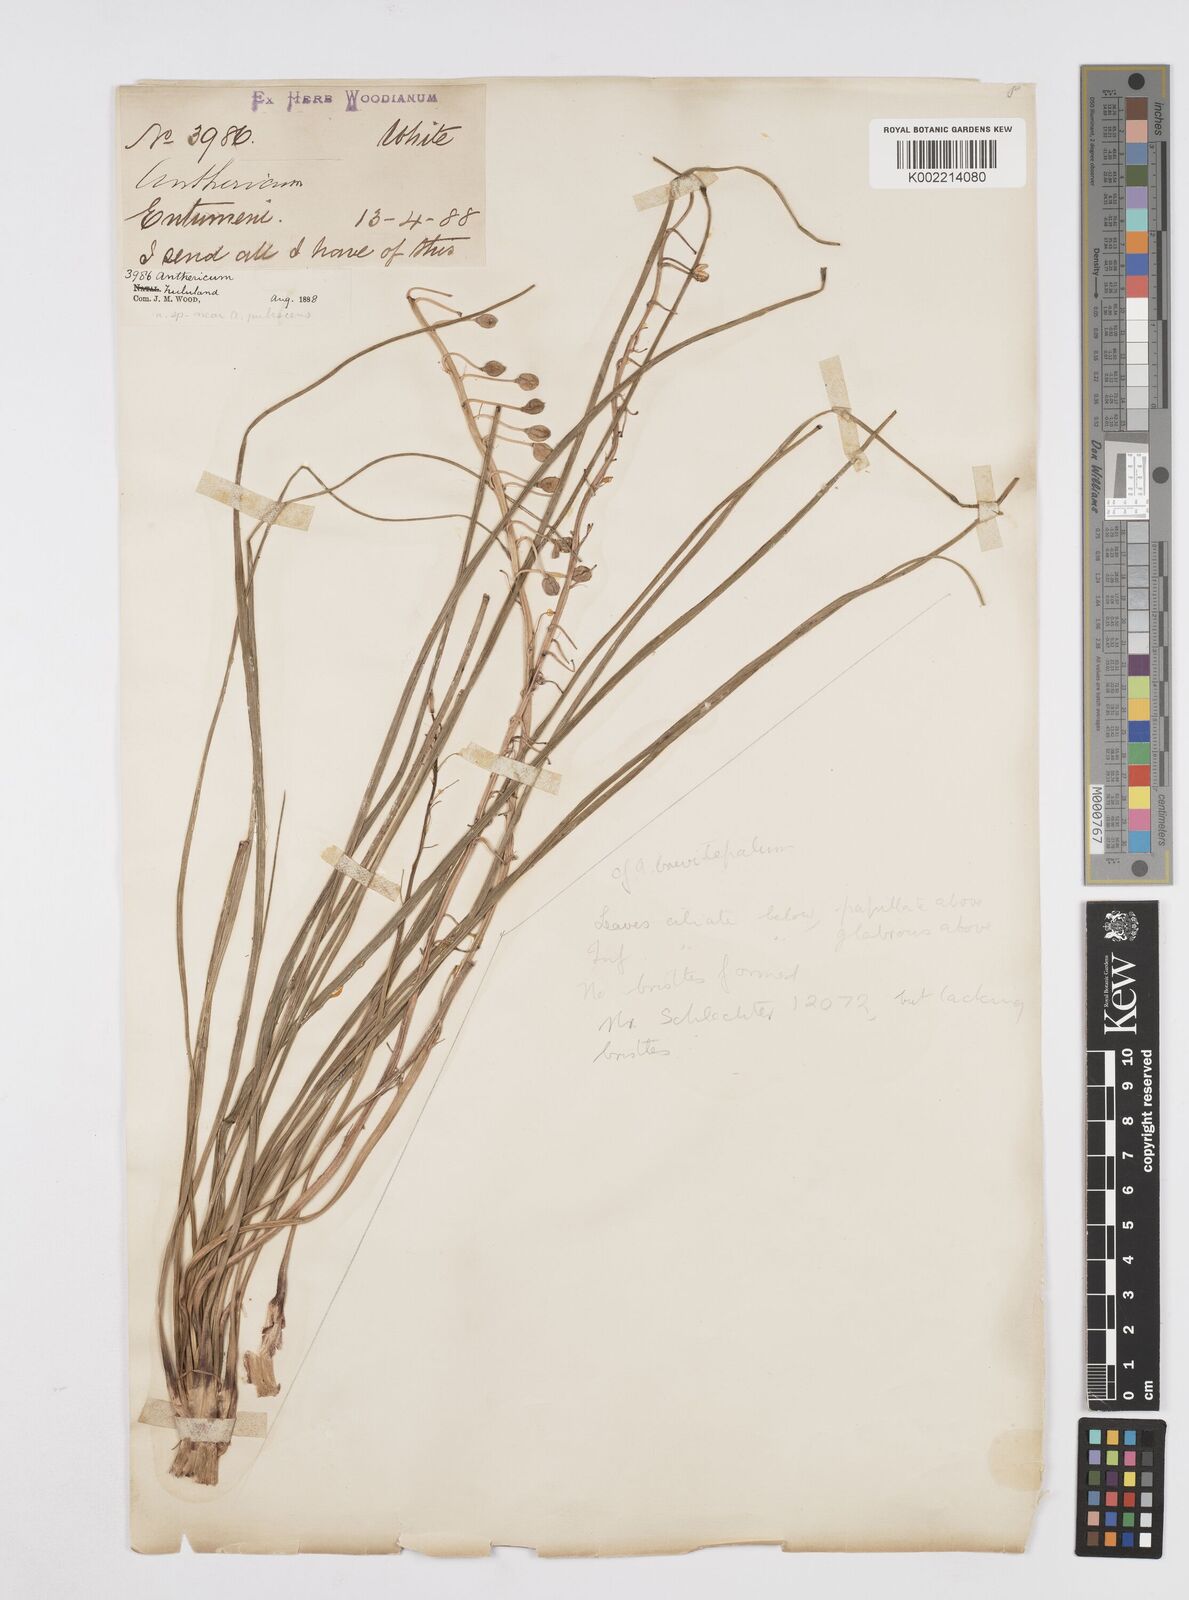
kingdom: Plantae
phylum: Tracheophyta
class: Liliopsida
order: Asparagales
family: Asphodelaceae
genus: Trachyandra
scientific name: Trachyandra
